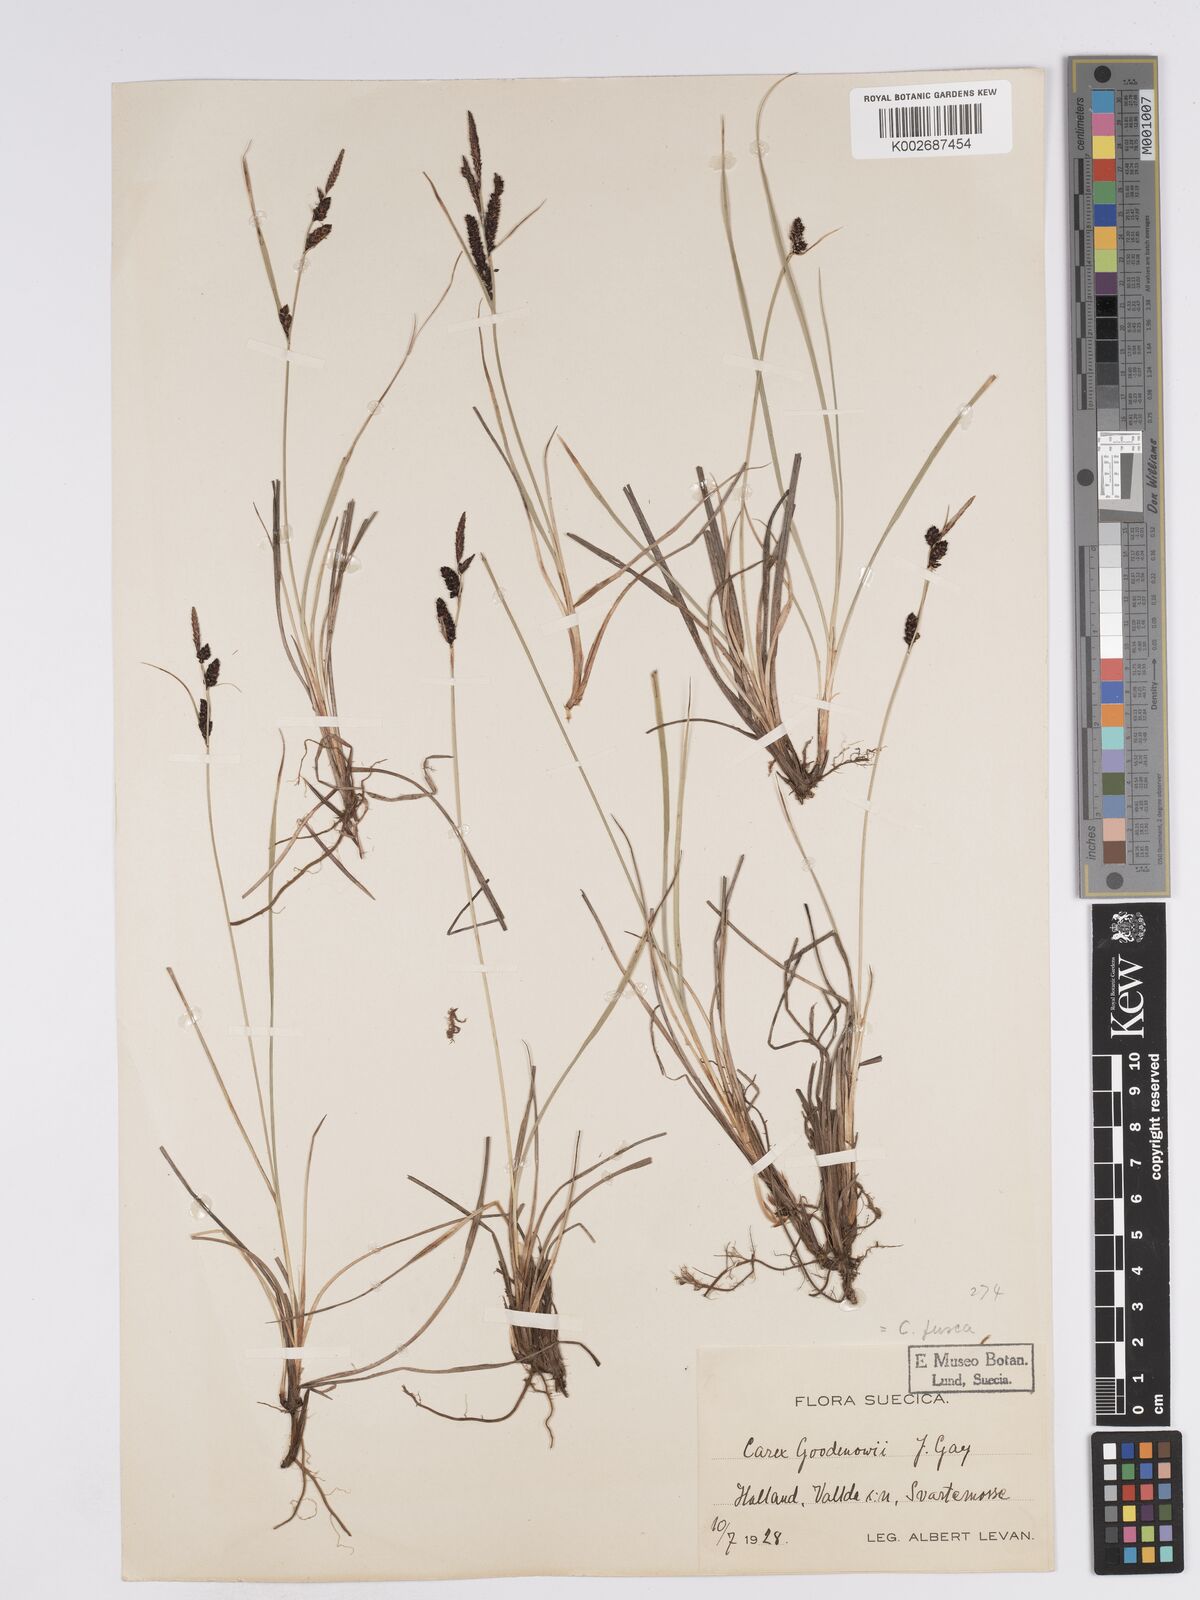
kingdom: Plantae
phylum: Tracheophyta
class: Liliopsida
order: Poales
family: Cyperaceae
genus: Carex
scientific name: Carex nigra
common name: Common sedge
